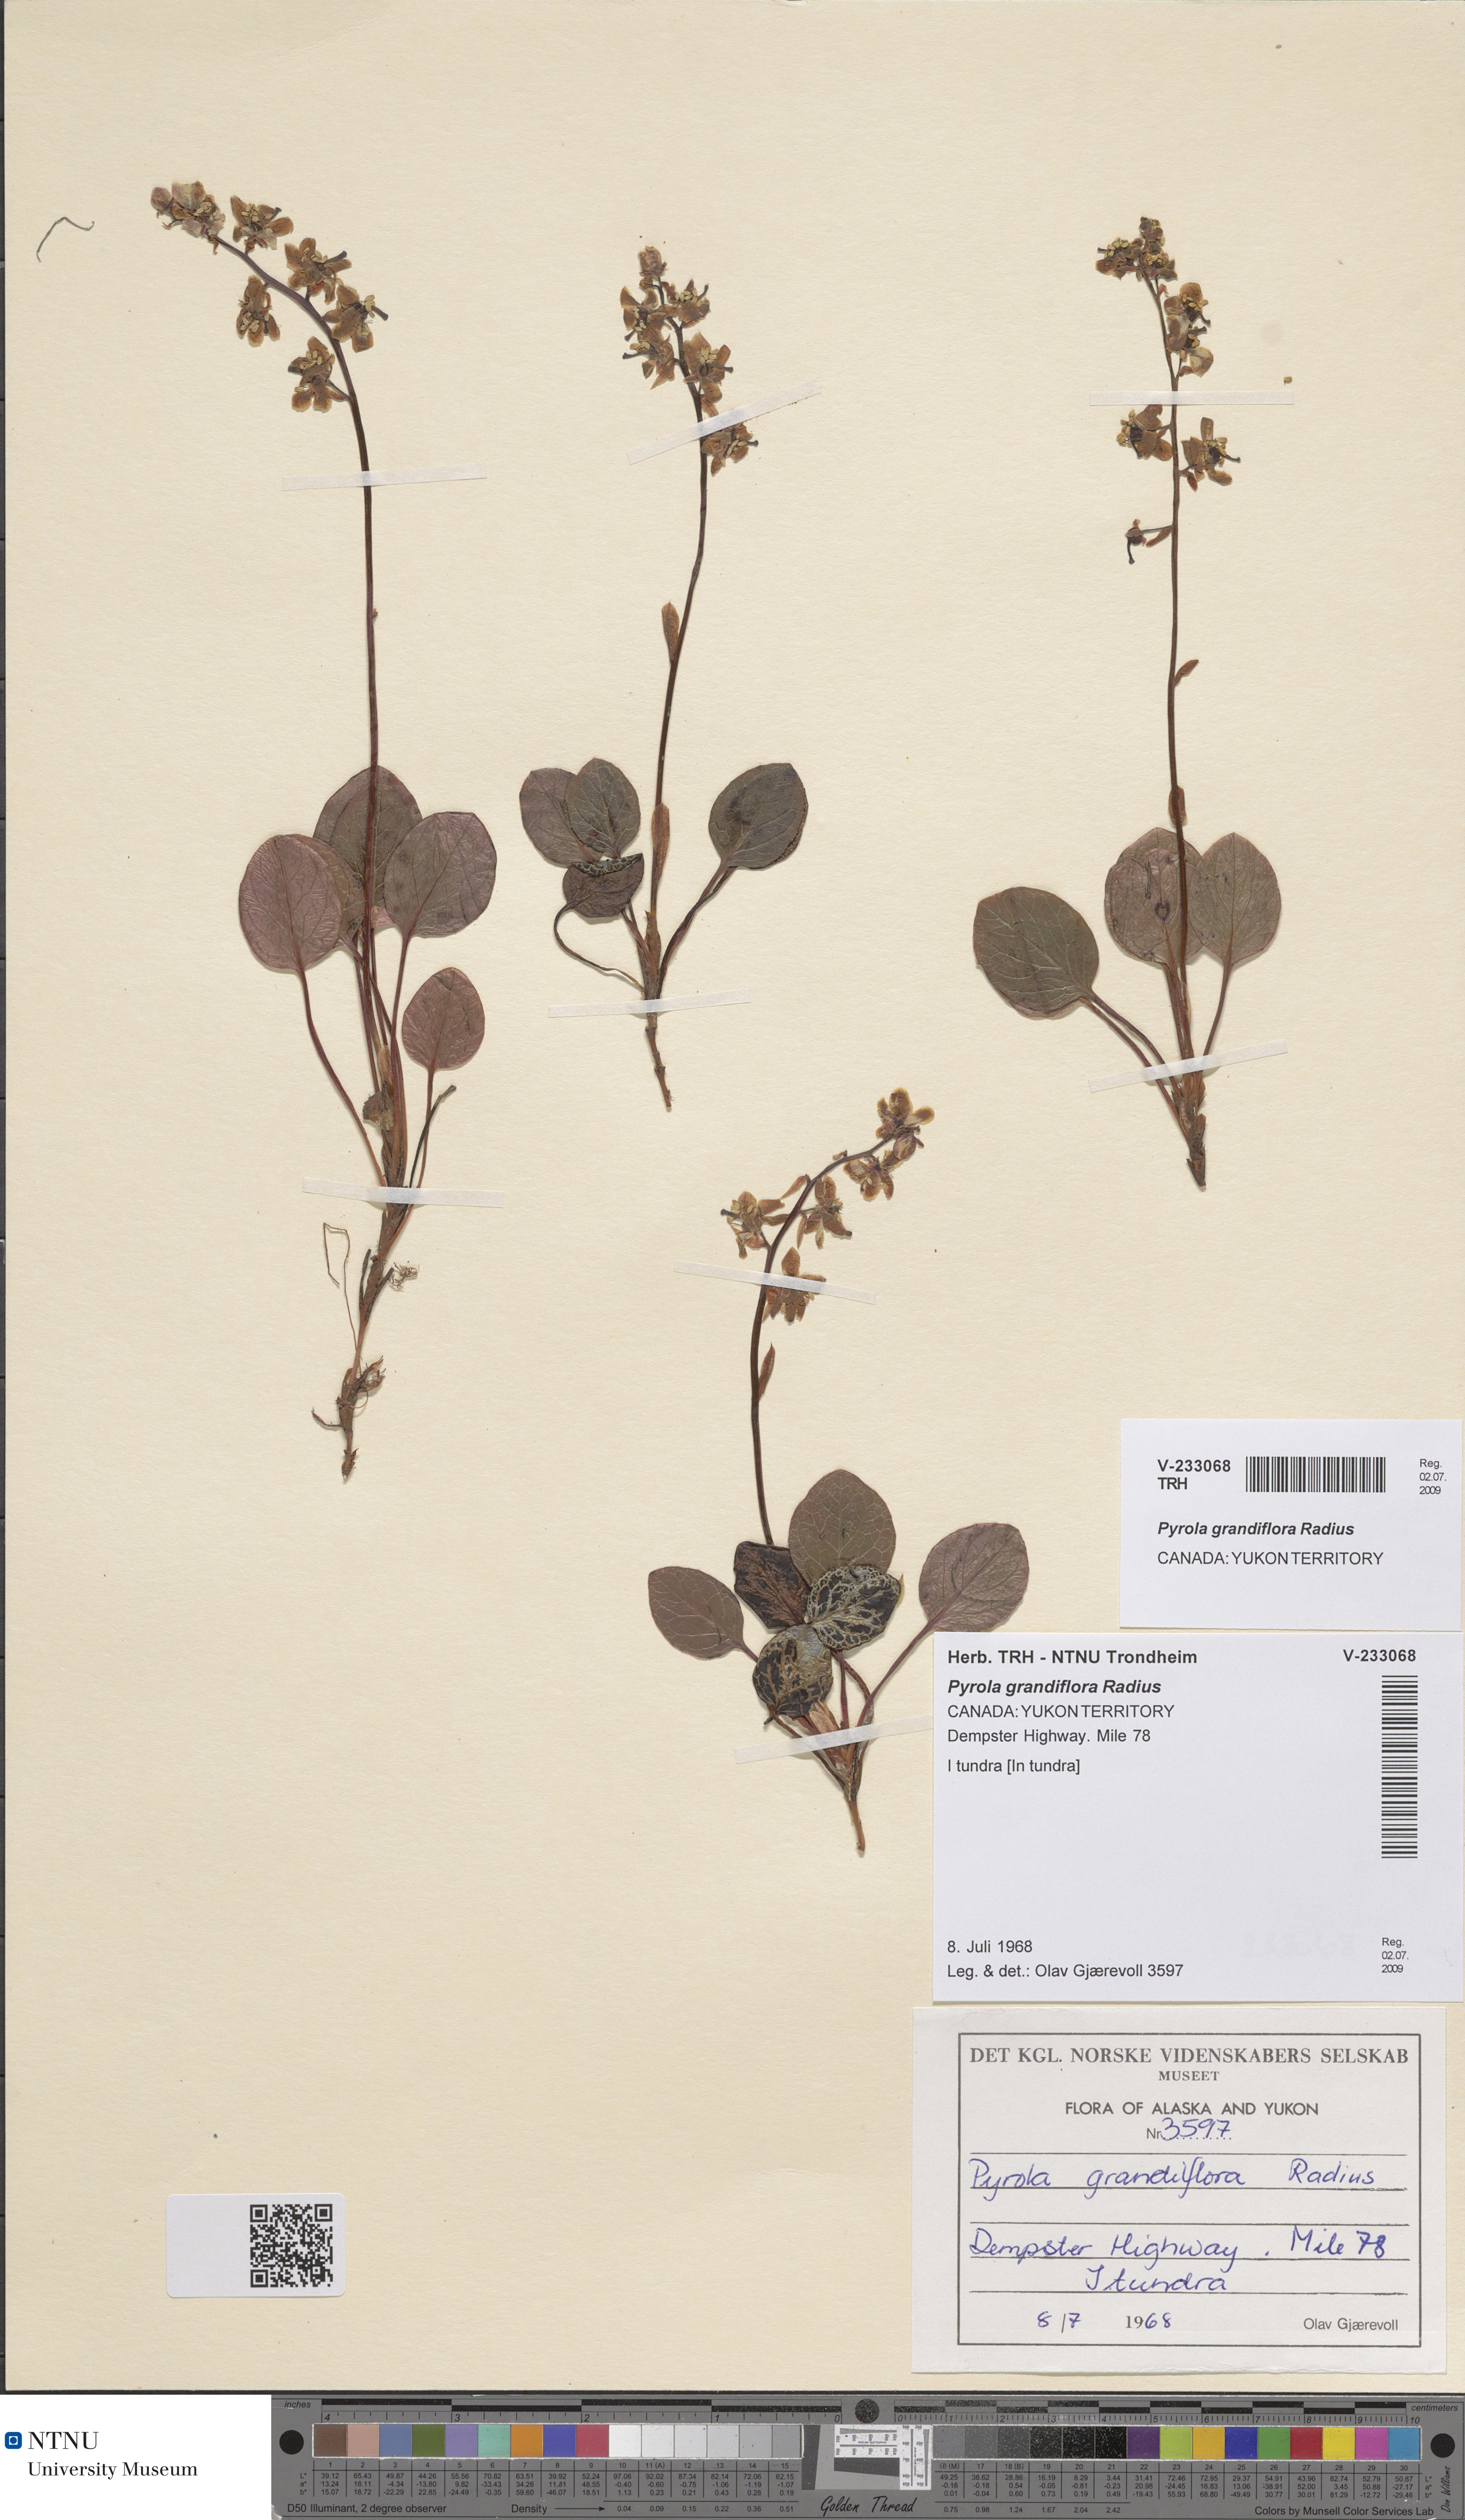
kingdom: Plantae
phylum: Tracheophyta
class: Magnoliopsida
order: Ericales
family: Ericaceae
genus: Pyrola
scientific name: Pyrola grandiflora
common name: Arctic pyrola
